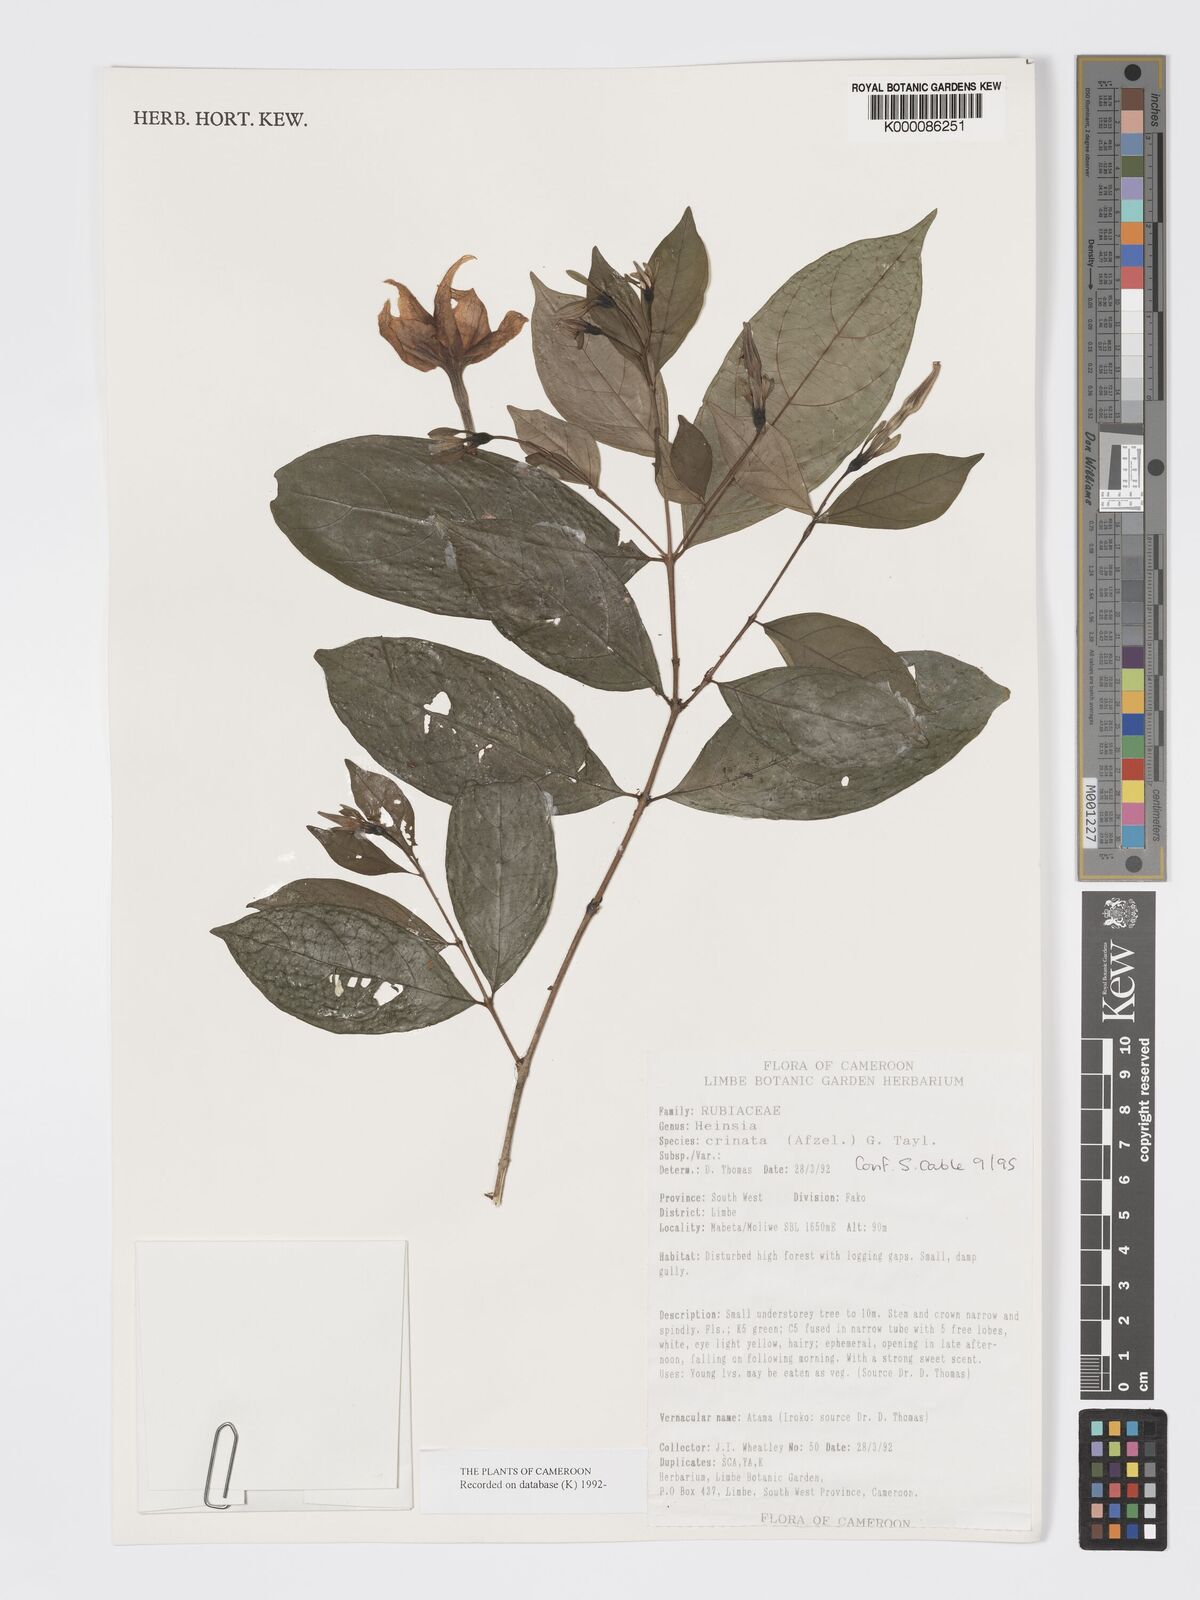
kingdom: Plantae
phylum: Tracheophyta
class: Magnoliopsida
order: Gentianales
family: Rubiaceae
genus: Heinsia
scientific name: Heinsia crinita
